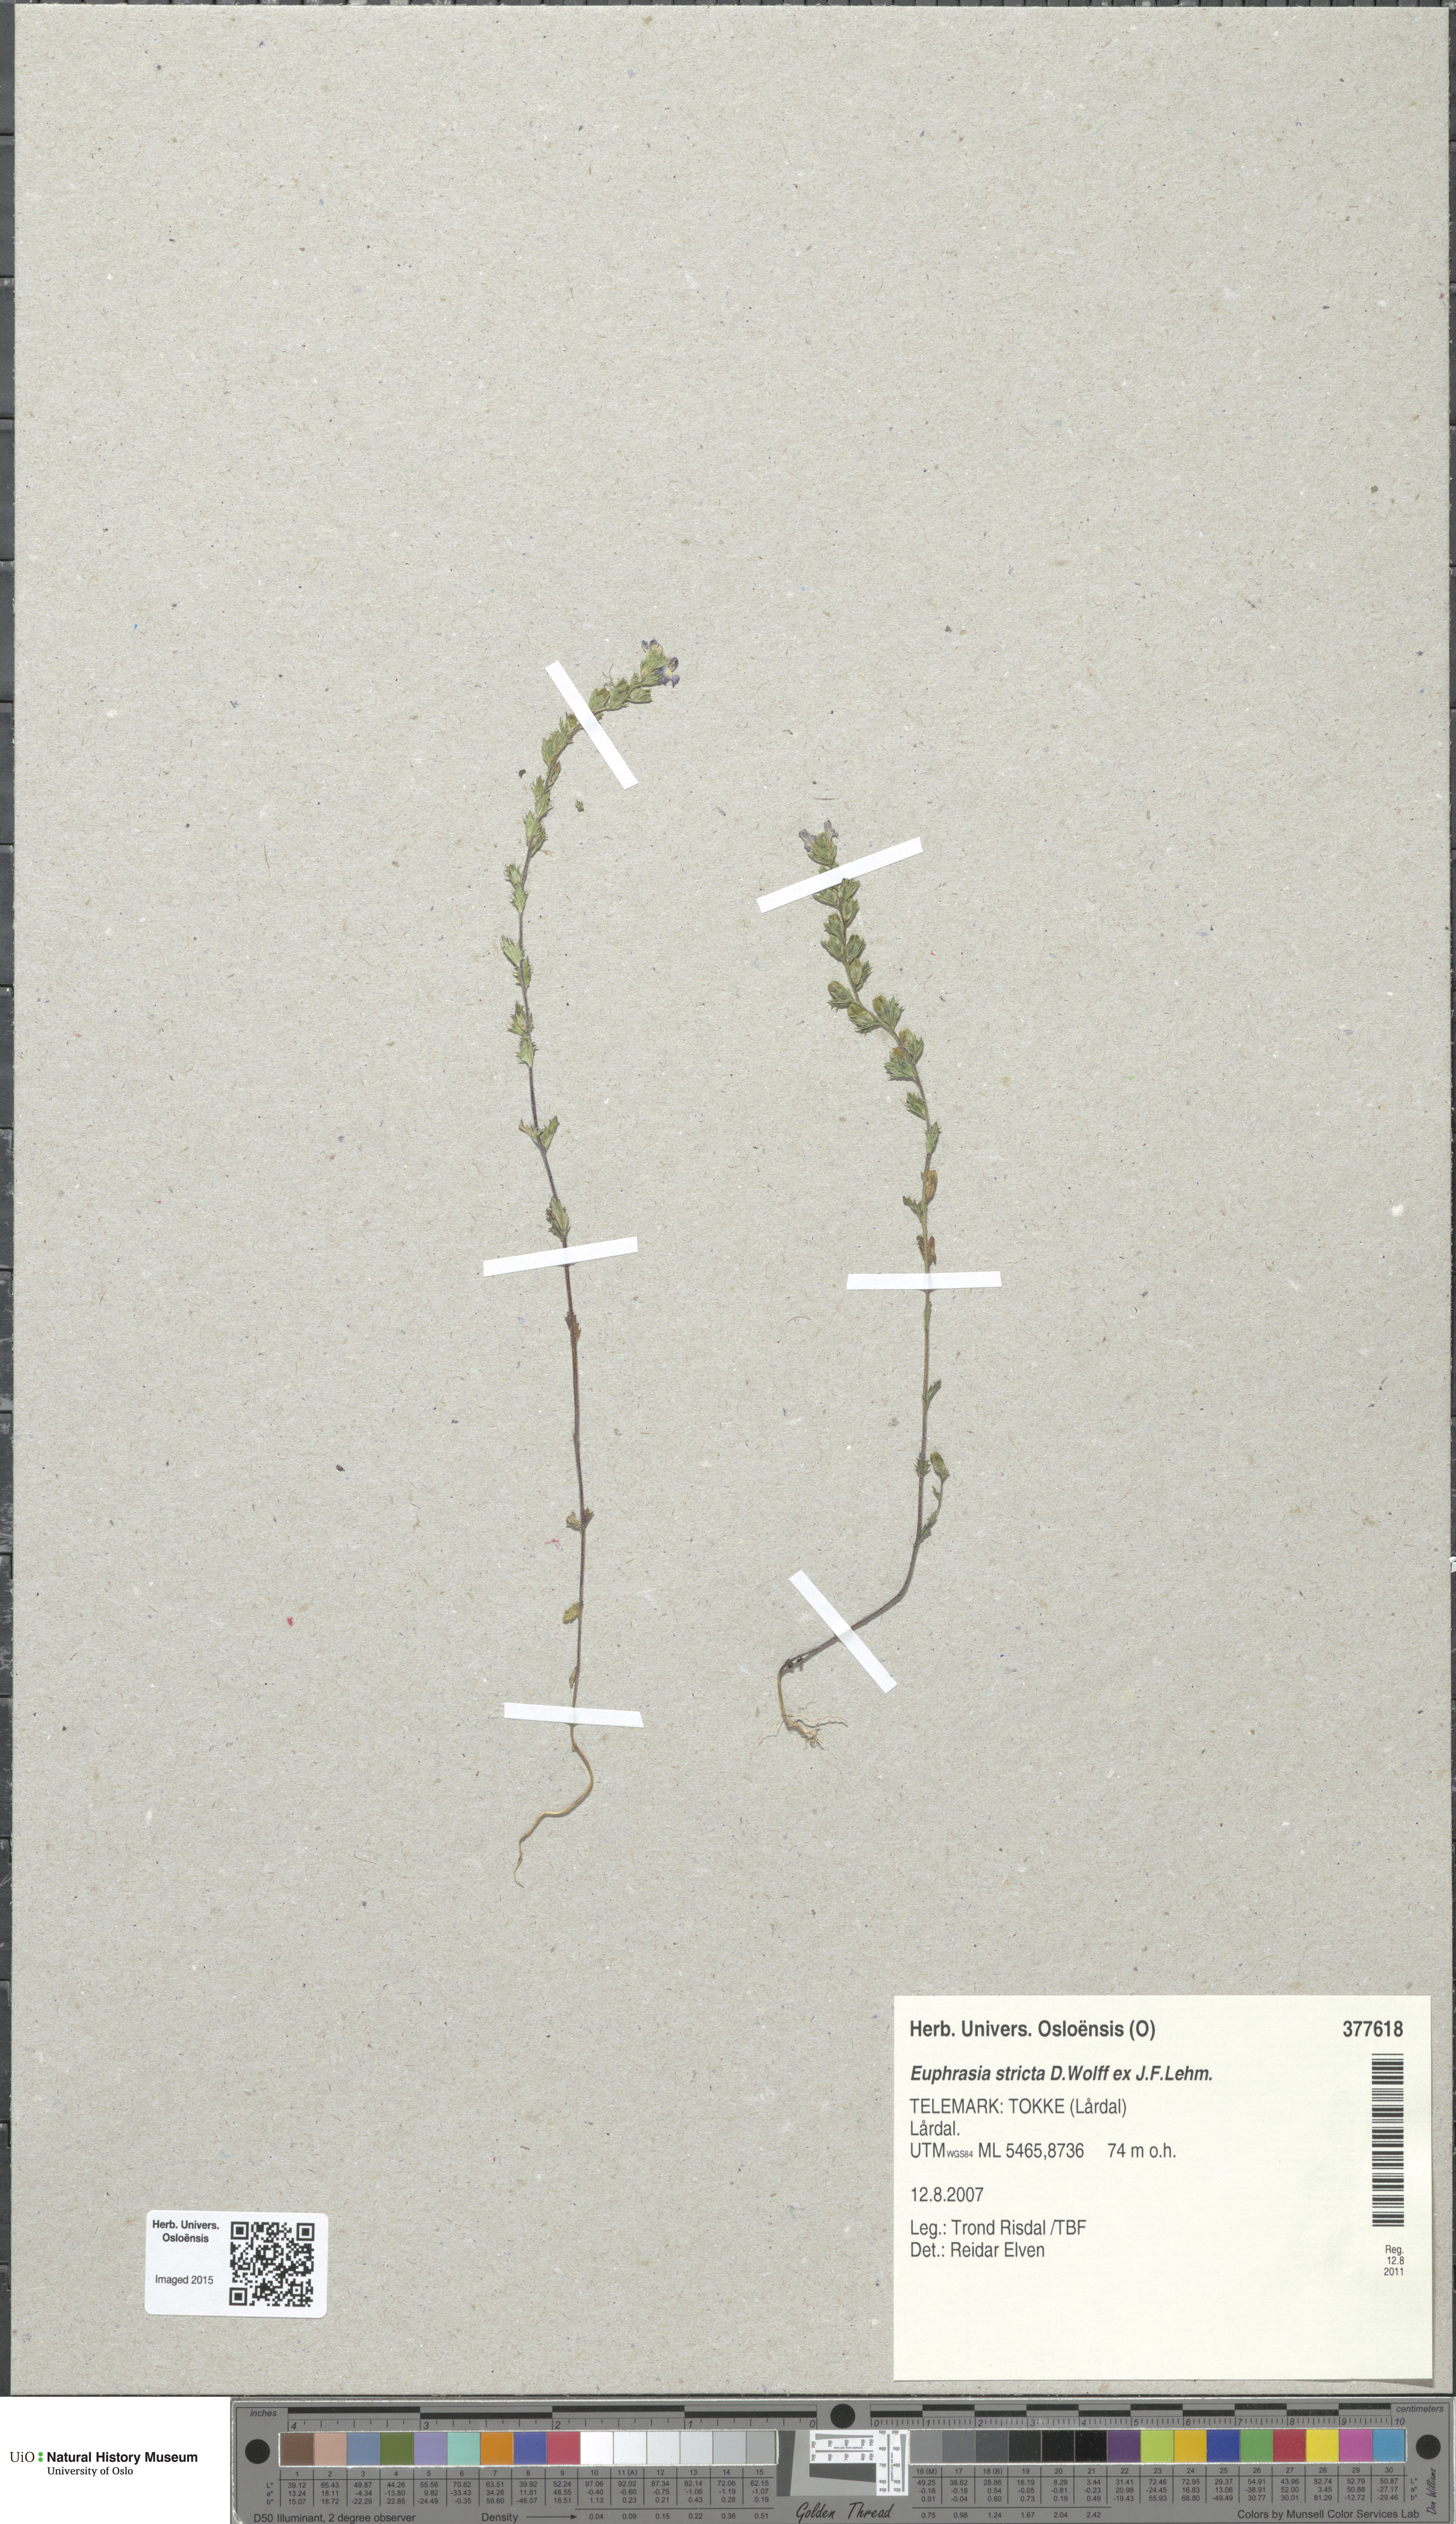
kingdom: Plantae
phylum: Tracheophyta
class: Magnoliopsida
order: Lamiales
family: Orobanchaceae
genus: Euphrasia
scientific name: Euphrasia stricta
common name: Drug eyebright
